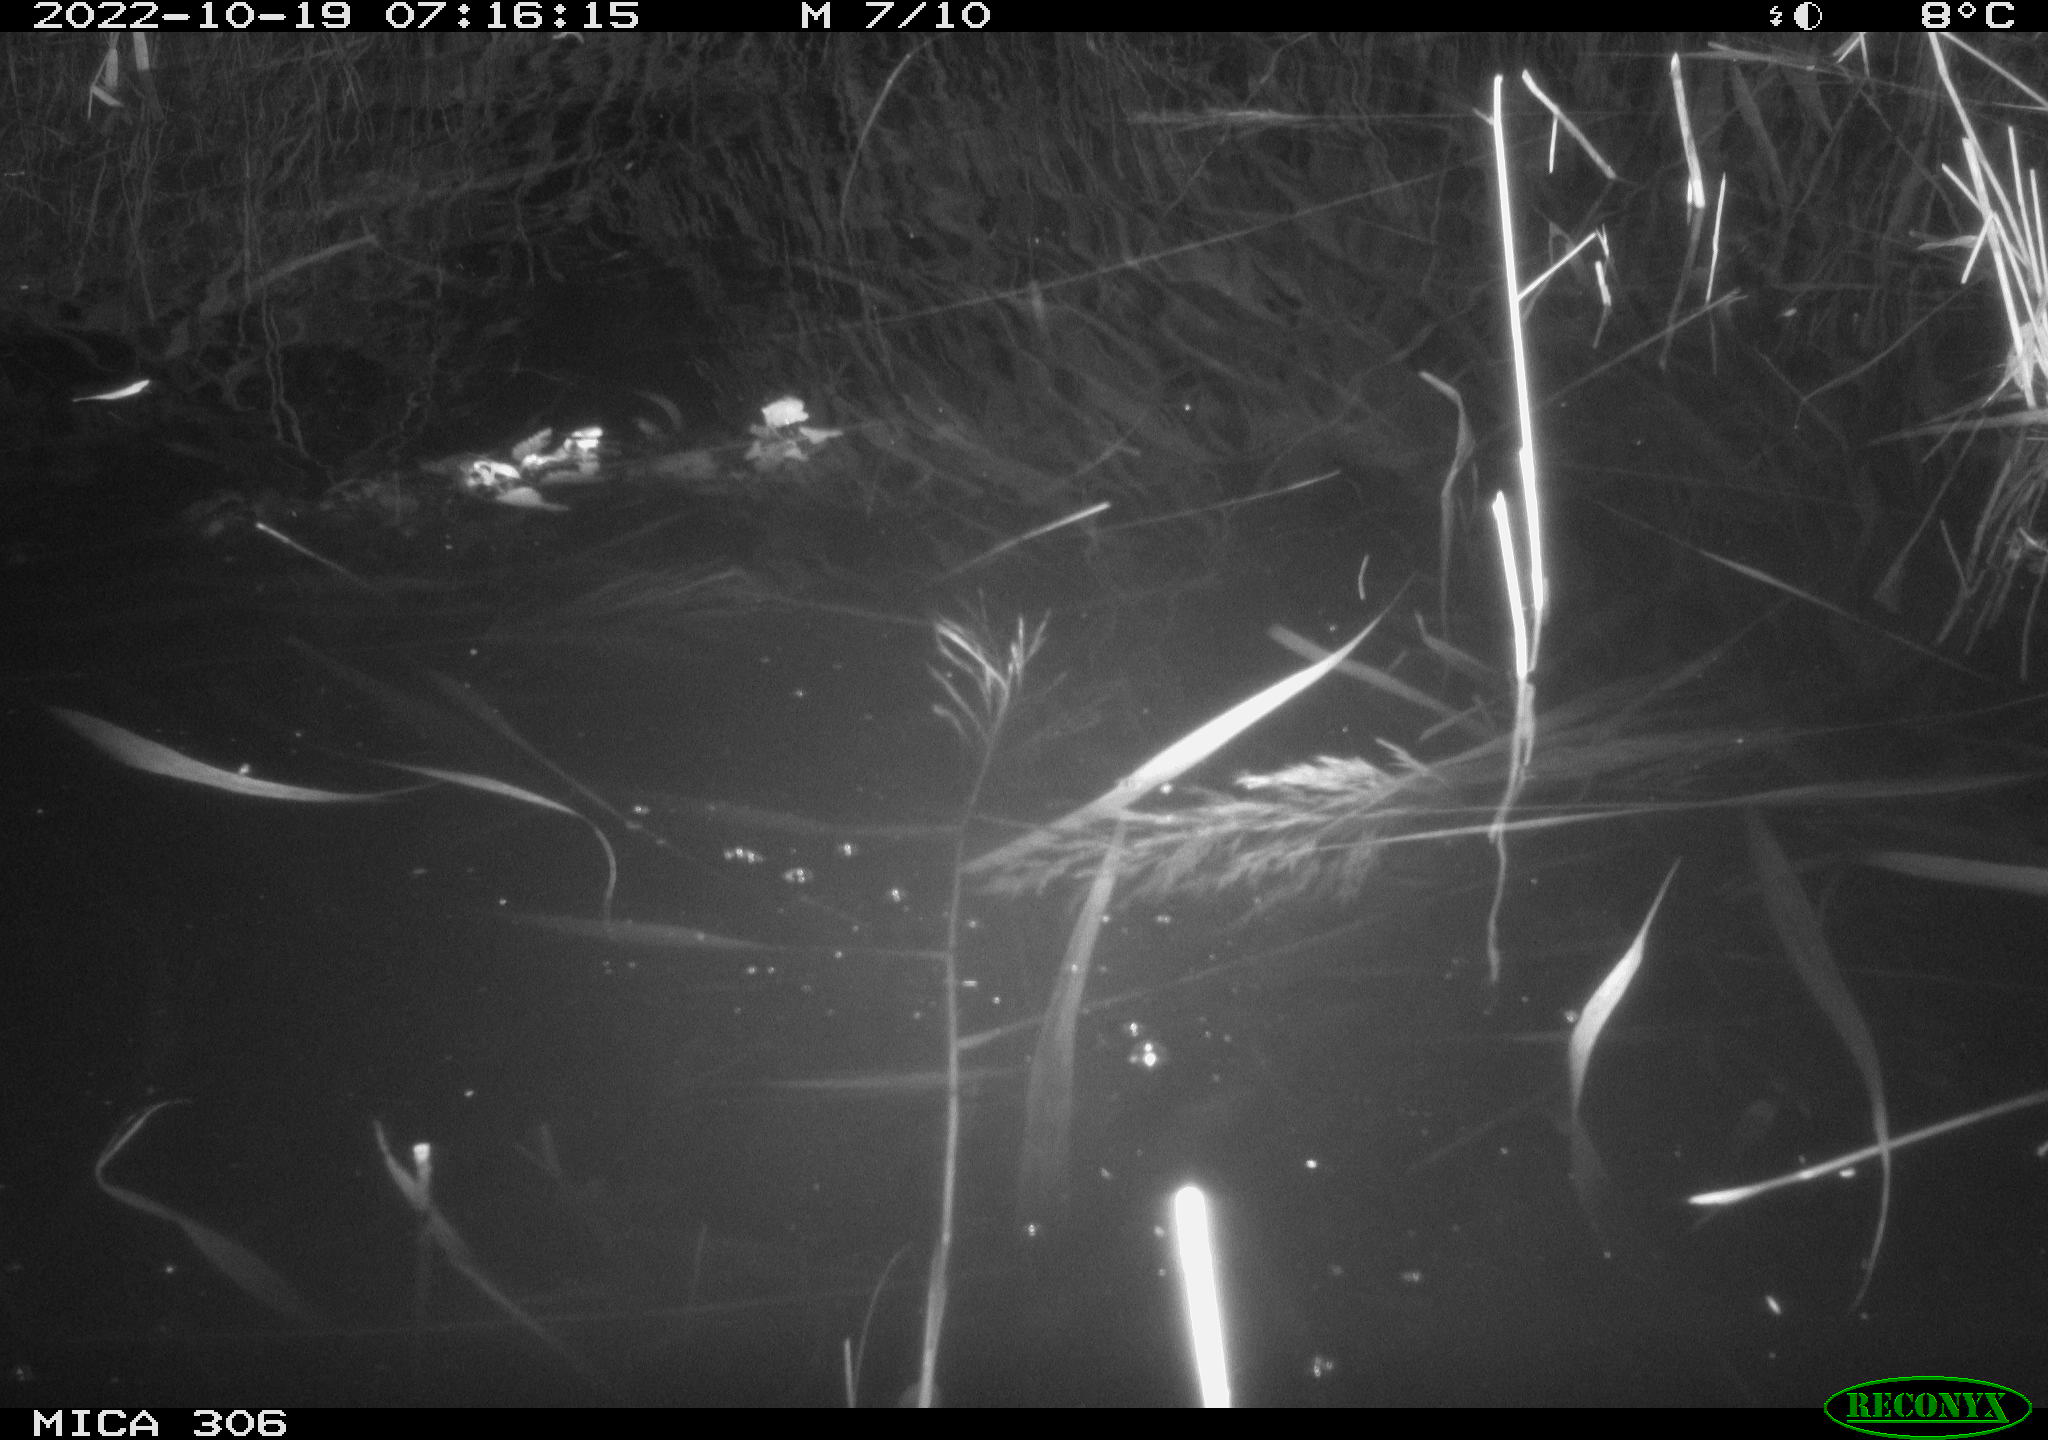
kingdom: Animalia
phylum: Chordata
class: Mammalia
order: Rodentia
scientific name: Rodentia
